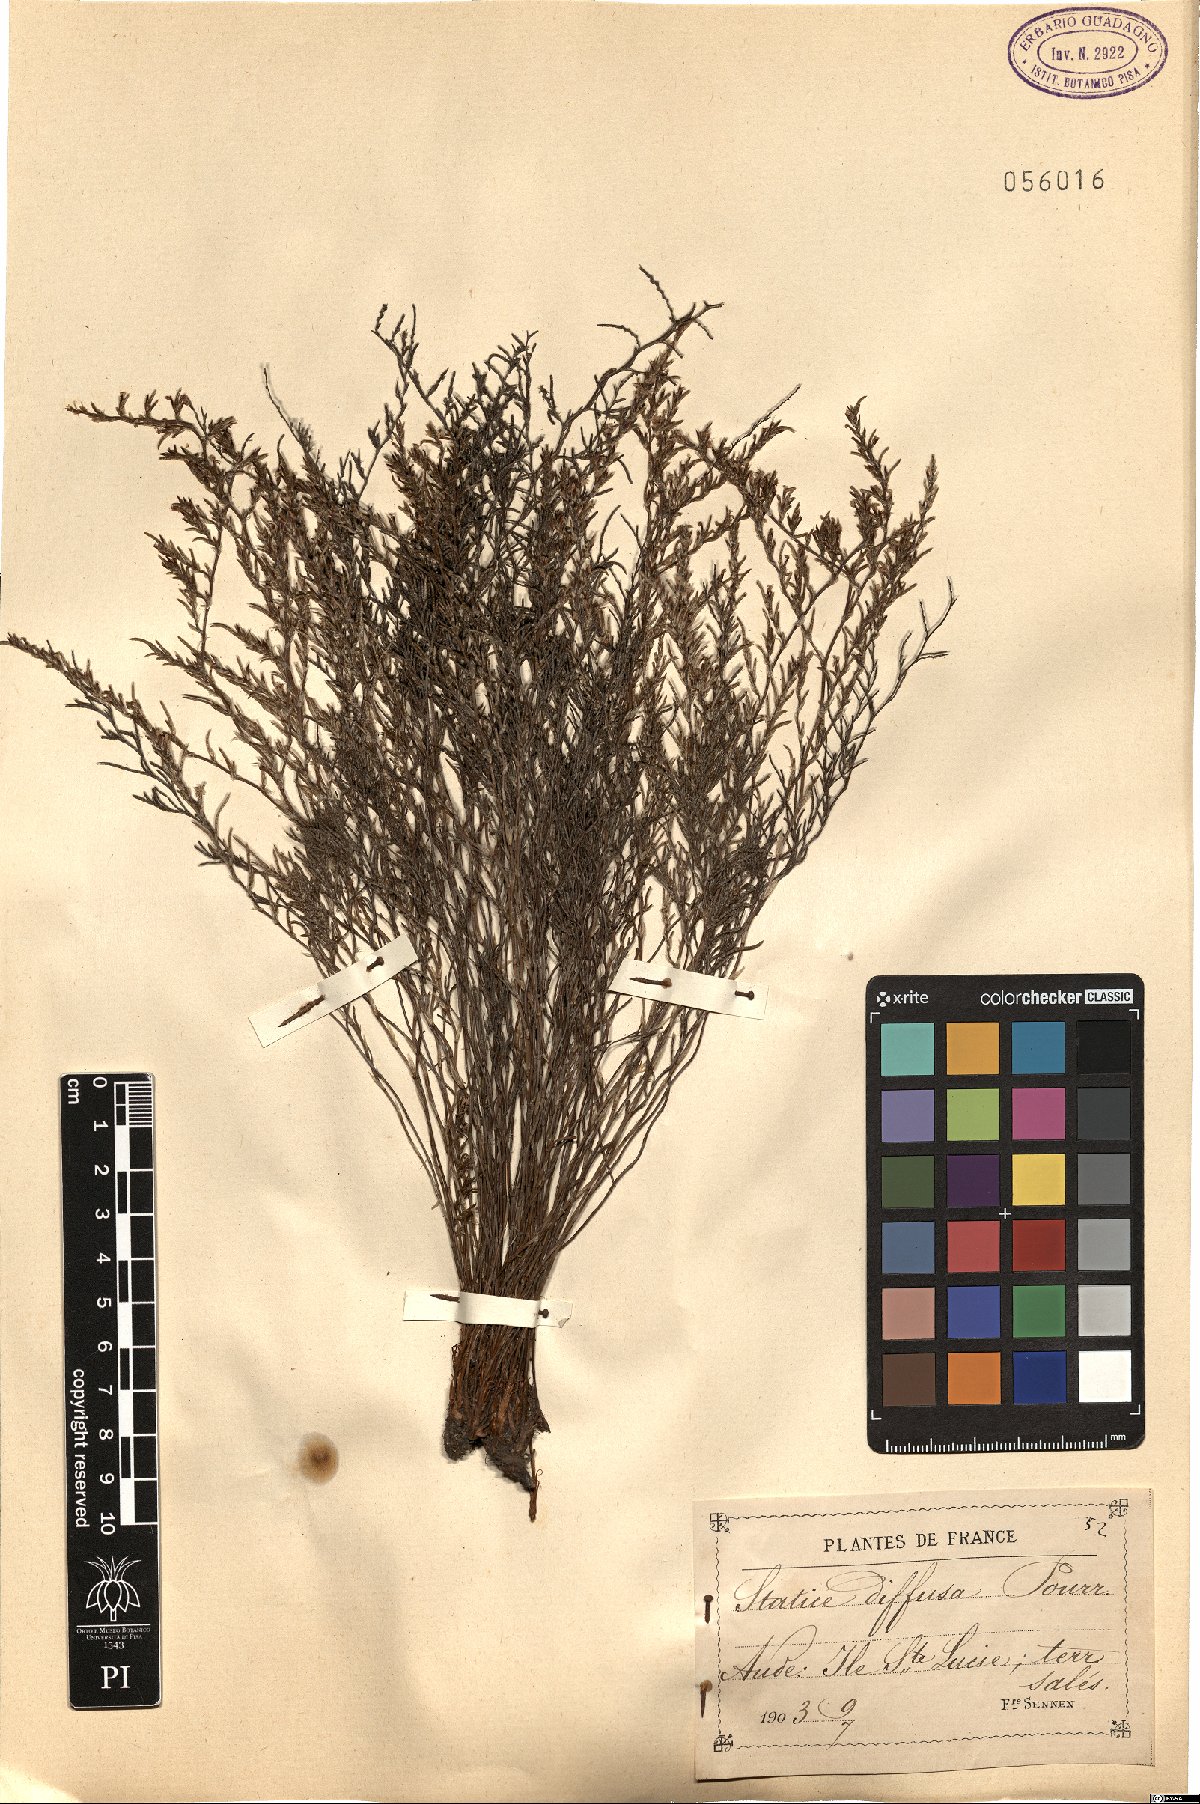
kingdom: Plantae
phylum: Tracheophyta
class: Magnoliopsida
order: Caryophyllales
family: Plumbaginaceae
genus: Limonium
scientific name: Limonium bellidifolium
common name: Matted sea-lavender
